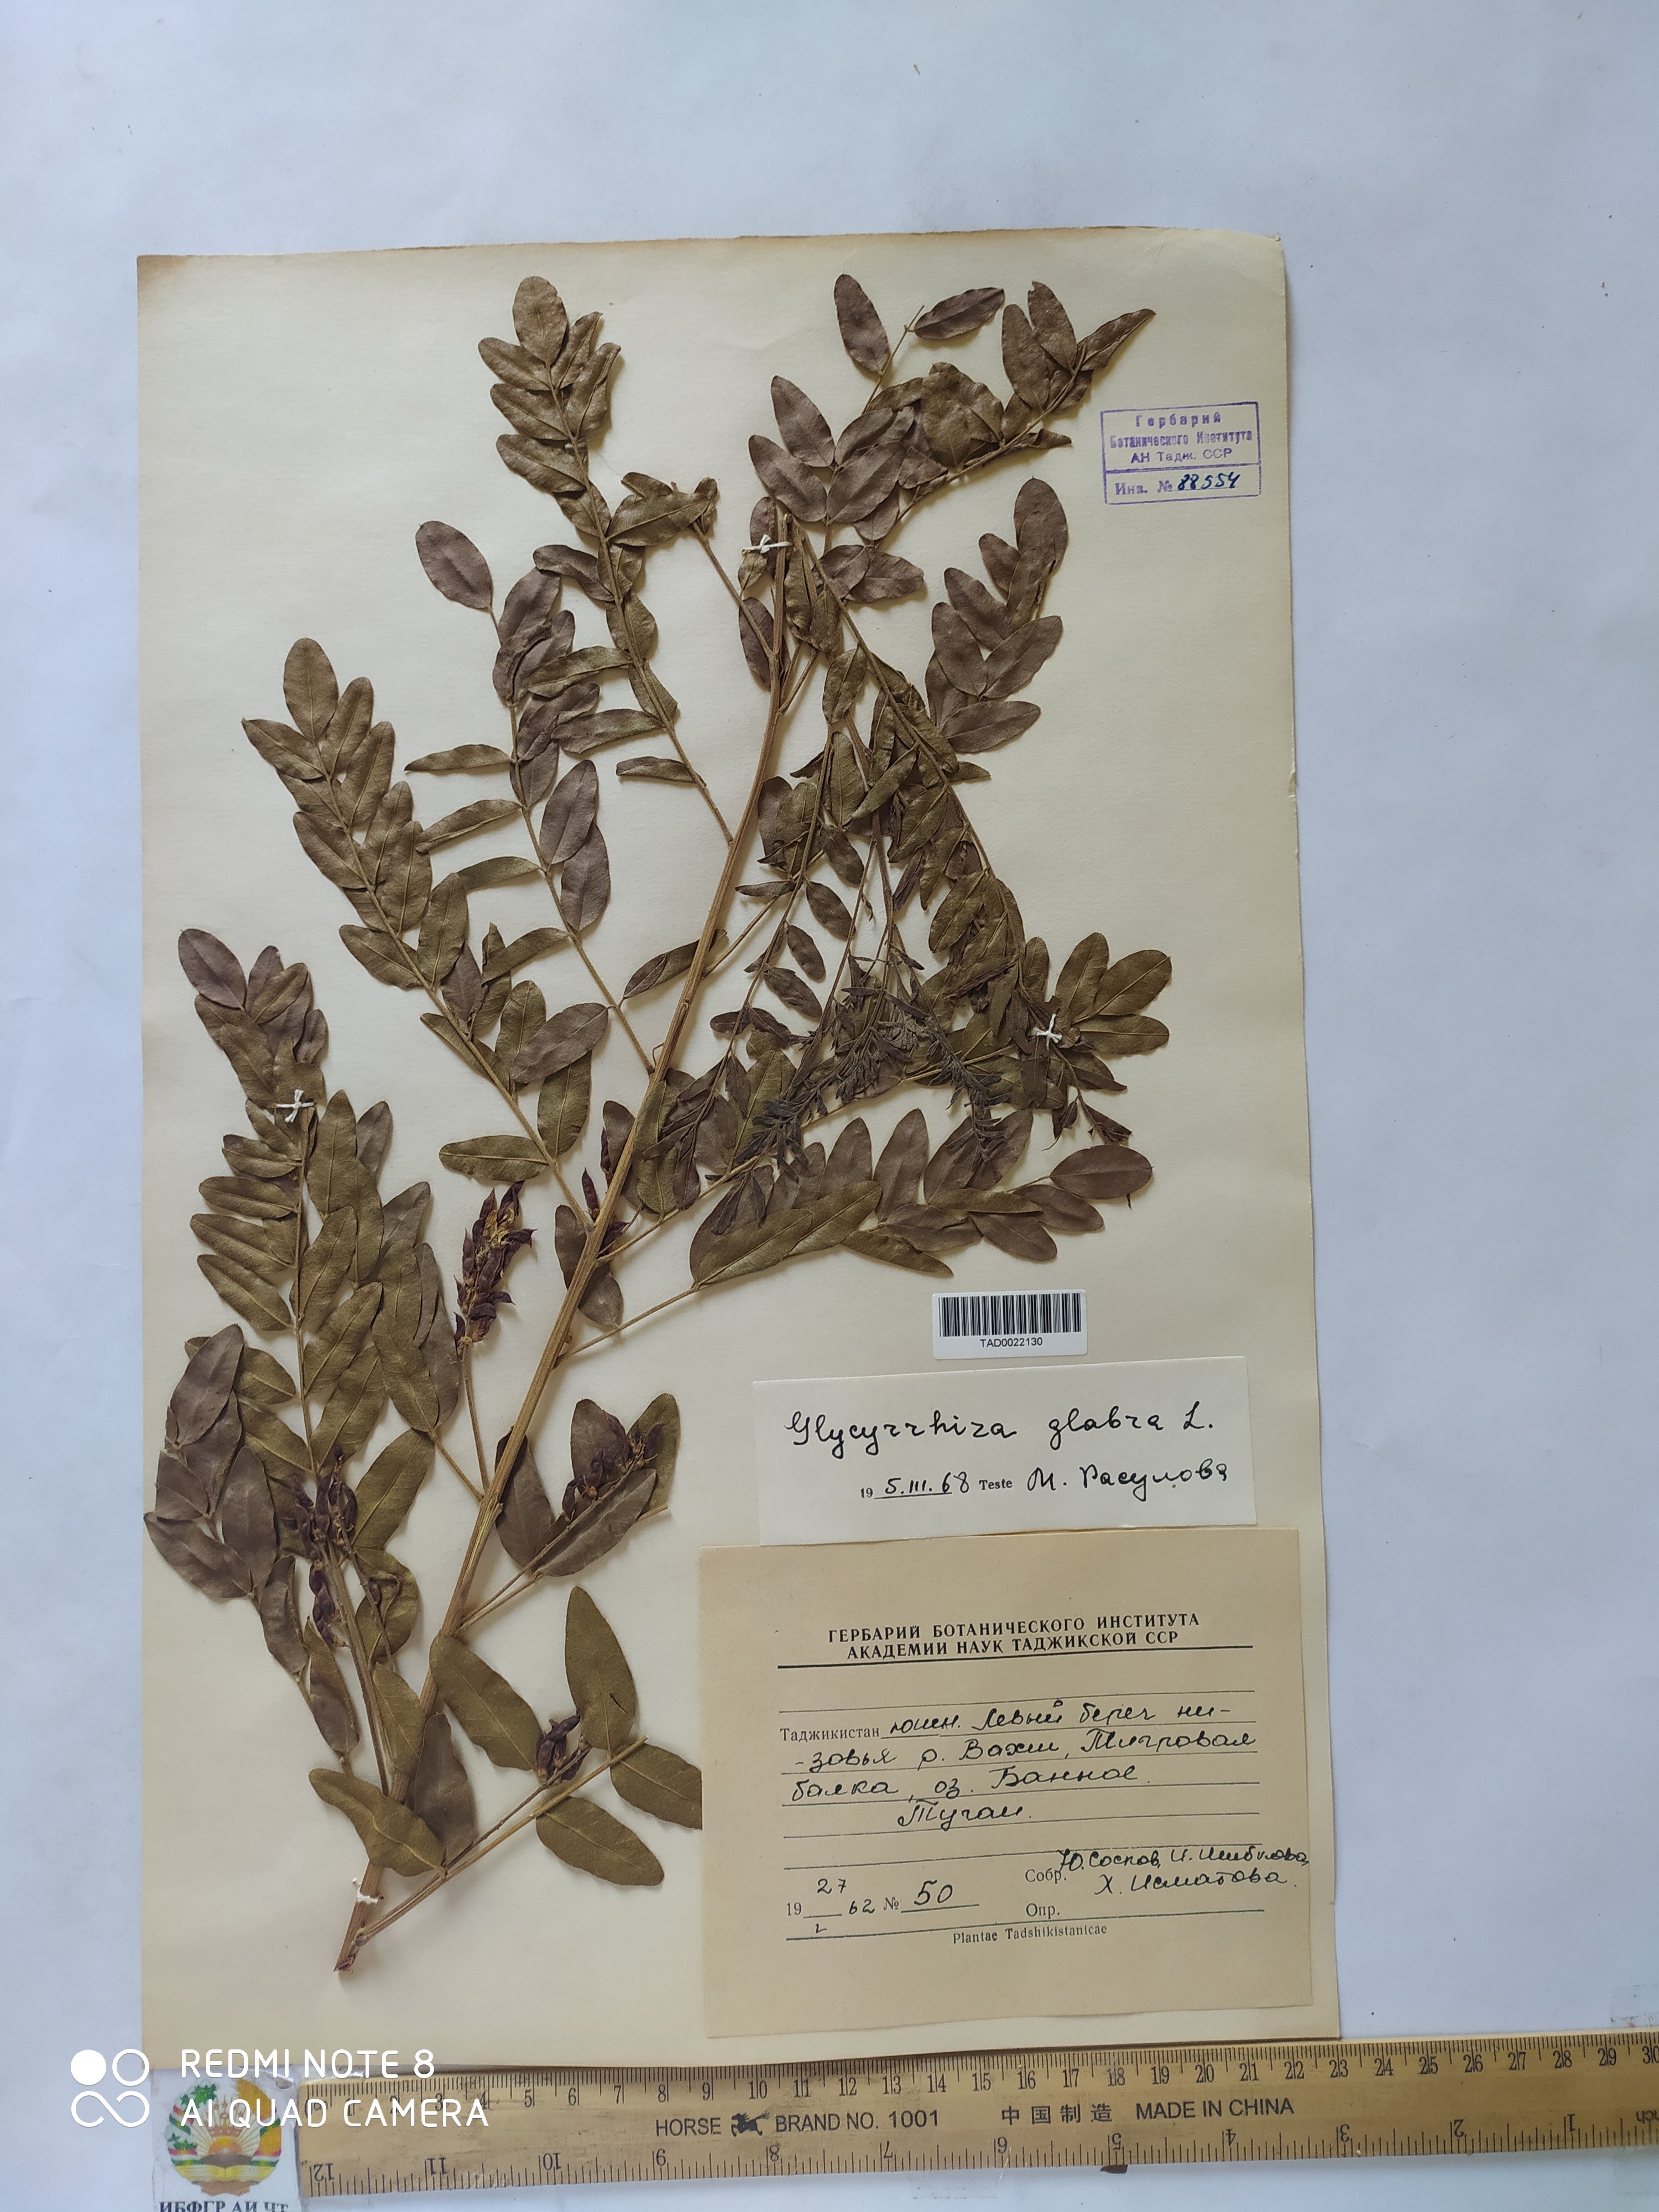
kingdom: Plantae
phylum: Tracheophyta
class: Magnoliopsida
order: Fabales
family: Fabaceae
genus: Glycyrrhiza
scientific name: Glycyrrhiza glabra
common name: Liquorice
